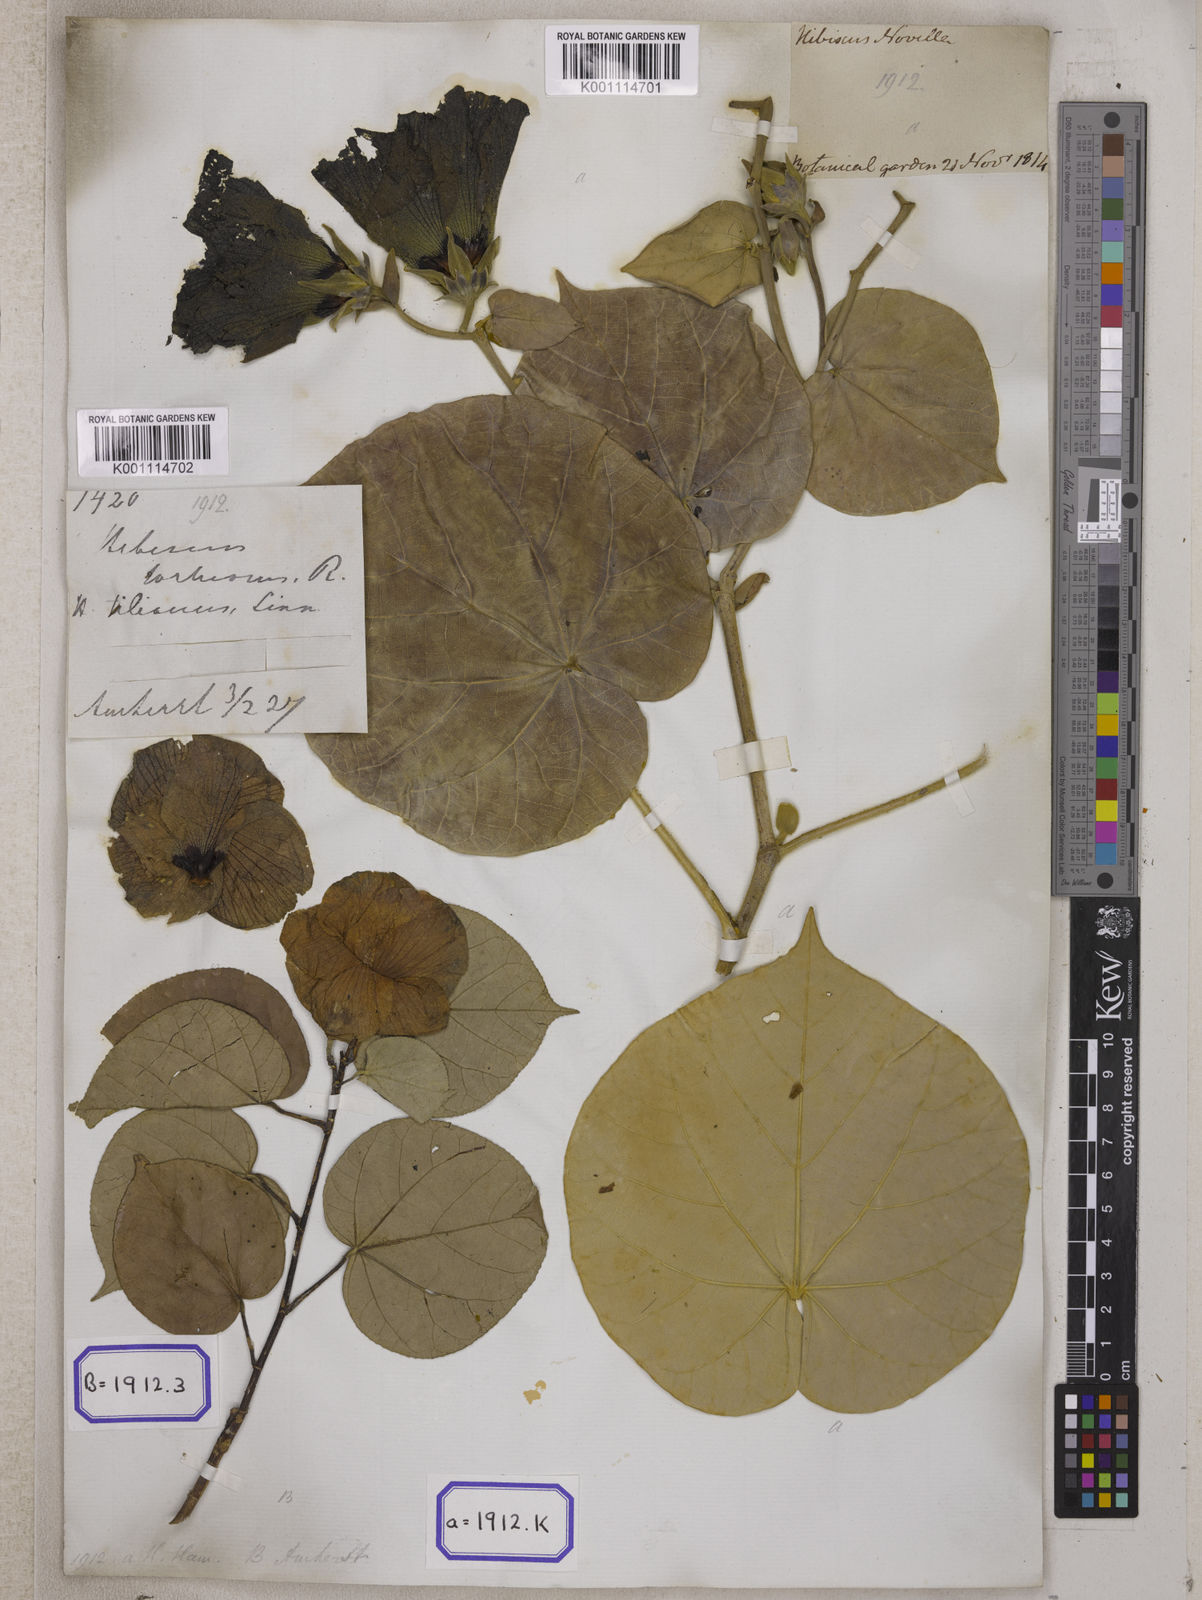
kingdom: Plantae
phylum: Tracheophyta
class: Magnoliopsida
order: Malvales
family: Malvaceae
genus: Talipariti
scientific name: Talipariti tiliaceum
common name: Sea hibiscus
